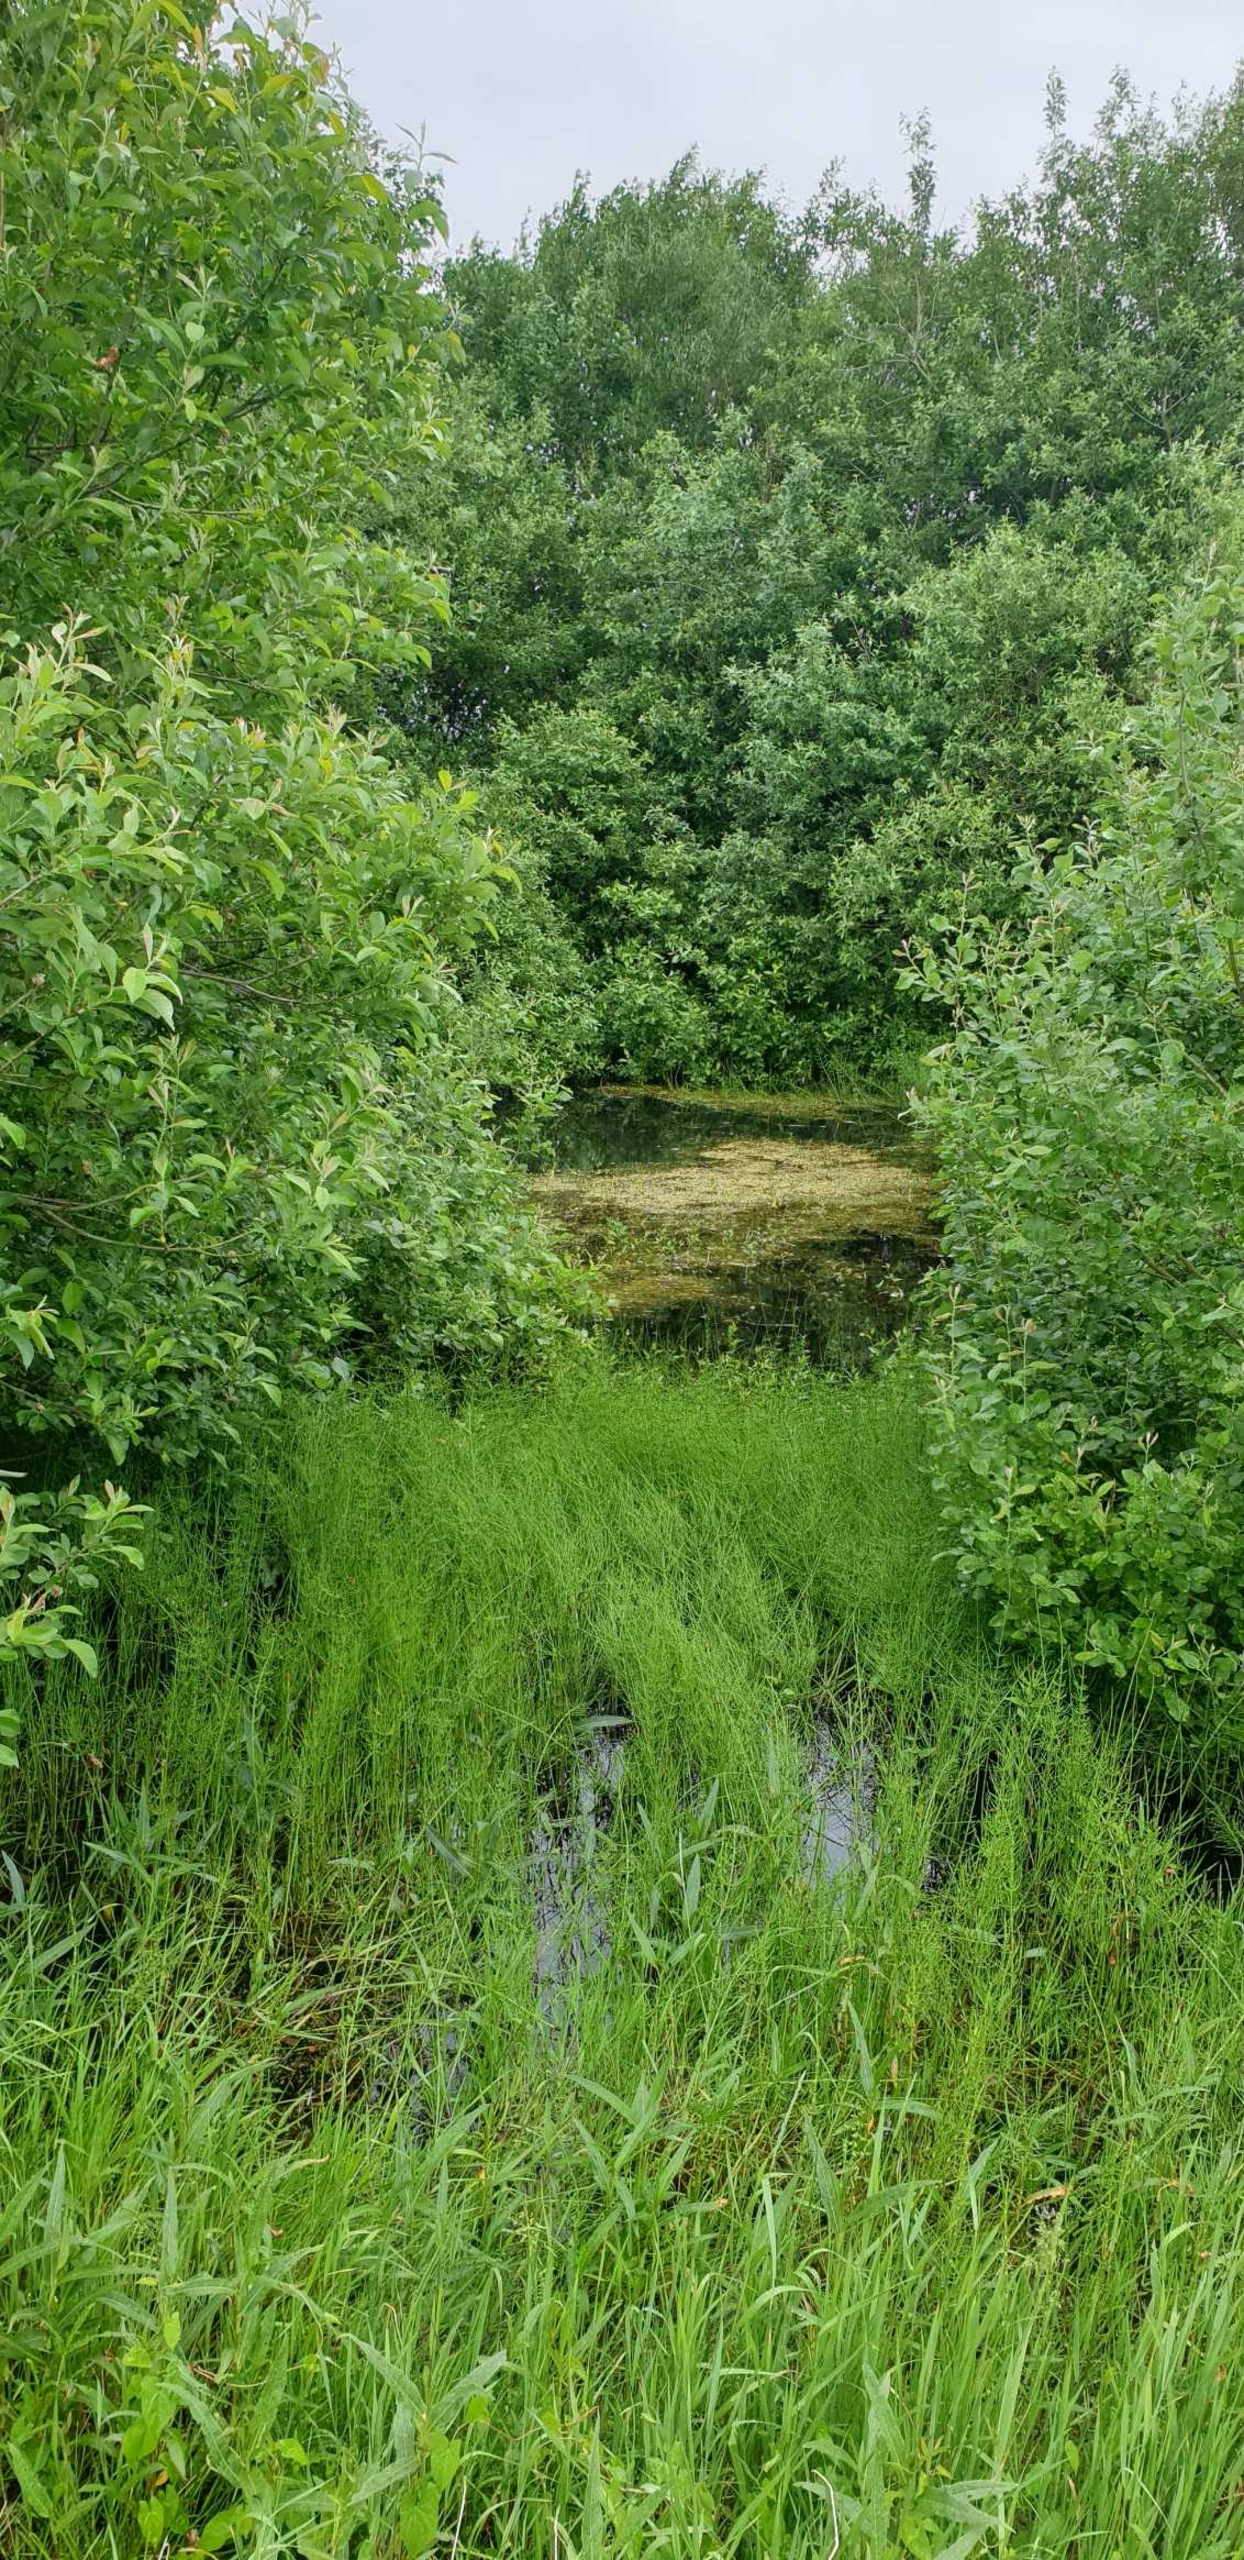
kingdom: Plantae
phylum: Tracheophyta
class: Polypodiopsida
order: Equisetales
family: Equisetaceae
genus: Equisetum
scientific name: Equisetum fluviatile
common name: Dynd-padderok
